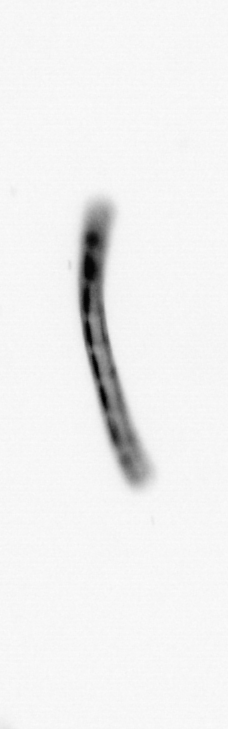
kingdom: Chromista
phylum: Ochrophyta
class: Bacillariophyceae
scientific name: Bacillariophyceae
